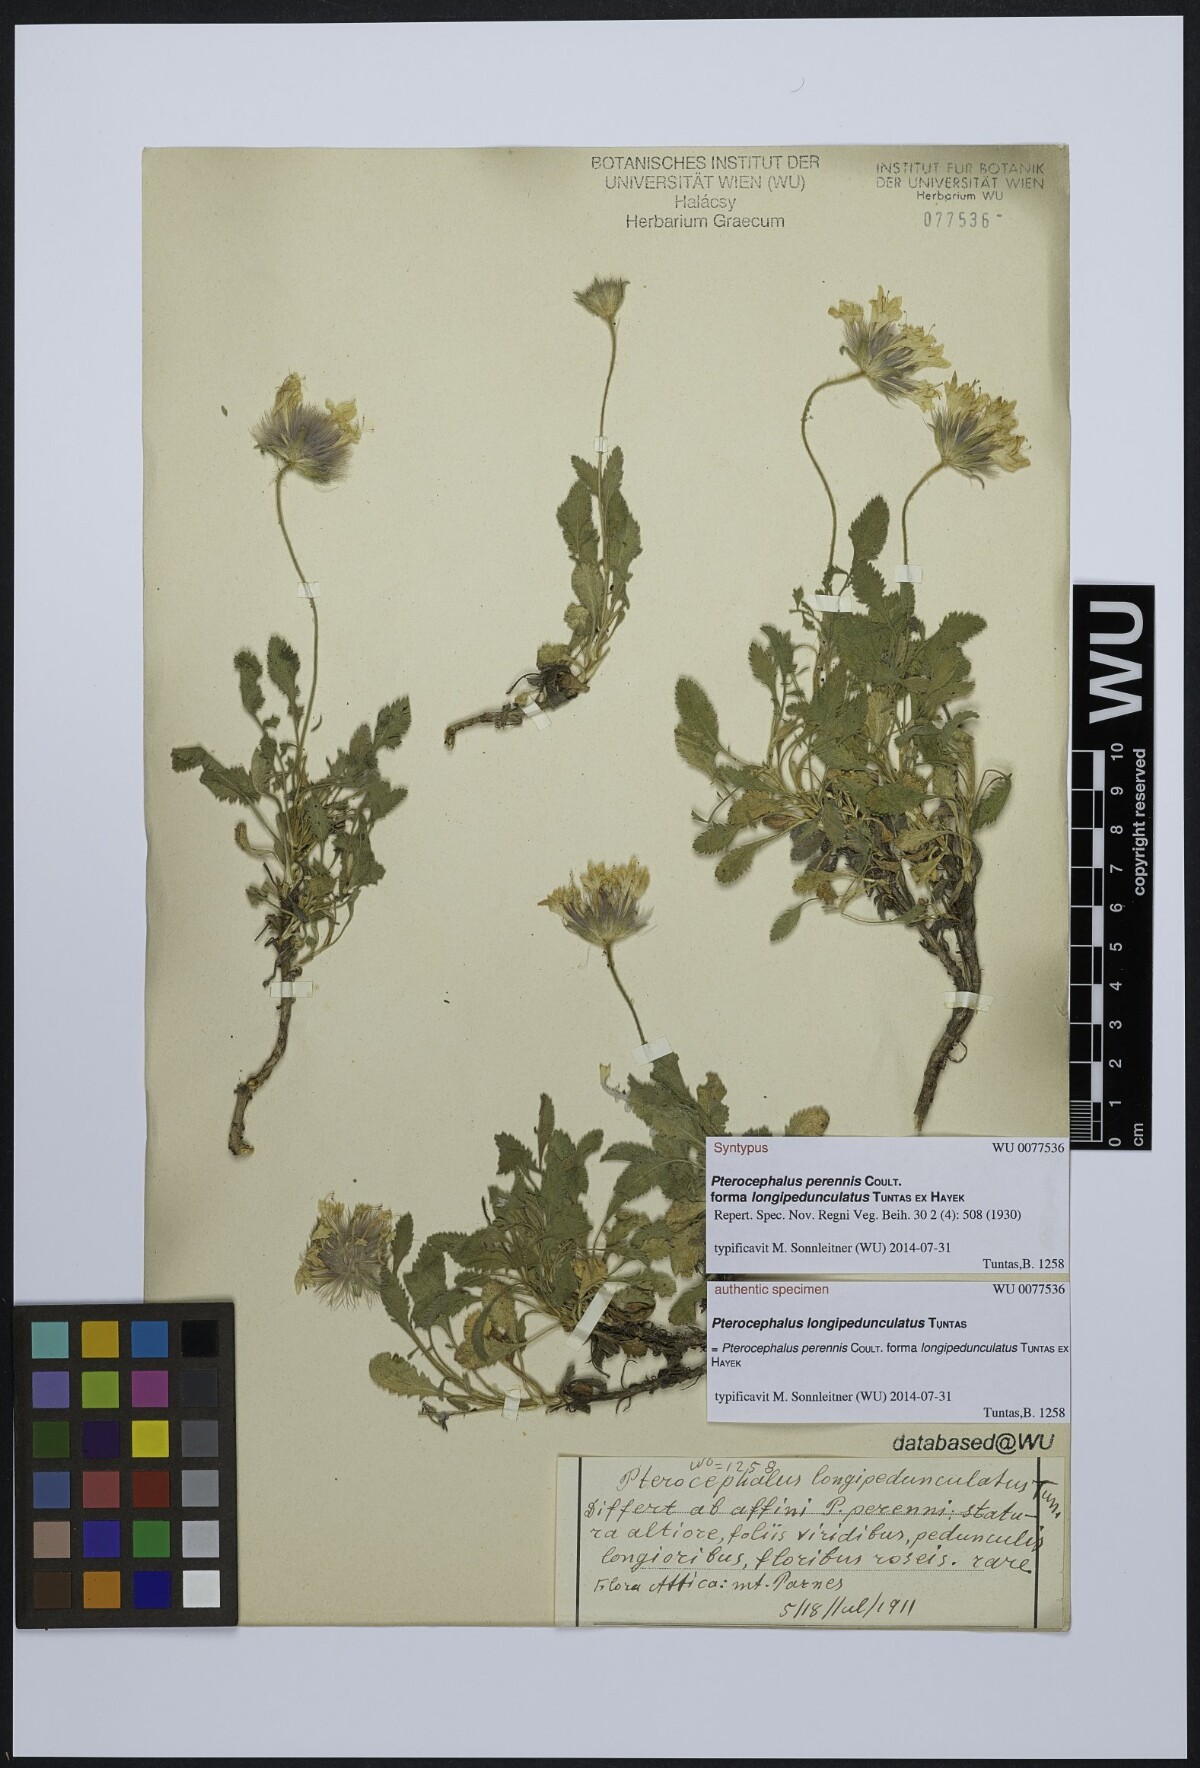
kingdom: Plantae
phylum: Tracheophyta
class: Magnoliopsida
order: Dipsacales
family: Caprifoliaceae
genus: Pterocephalus
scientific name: Pterocephalus perennis
